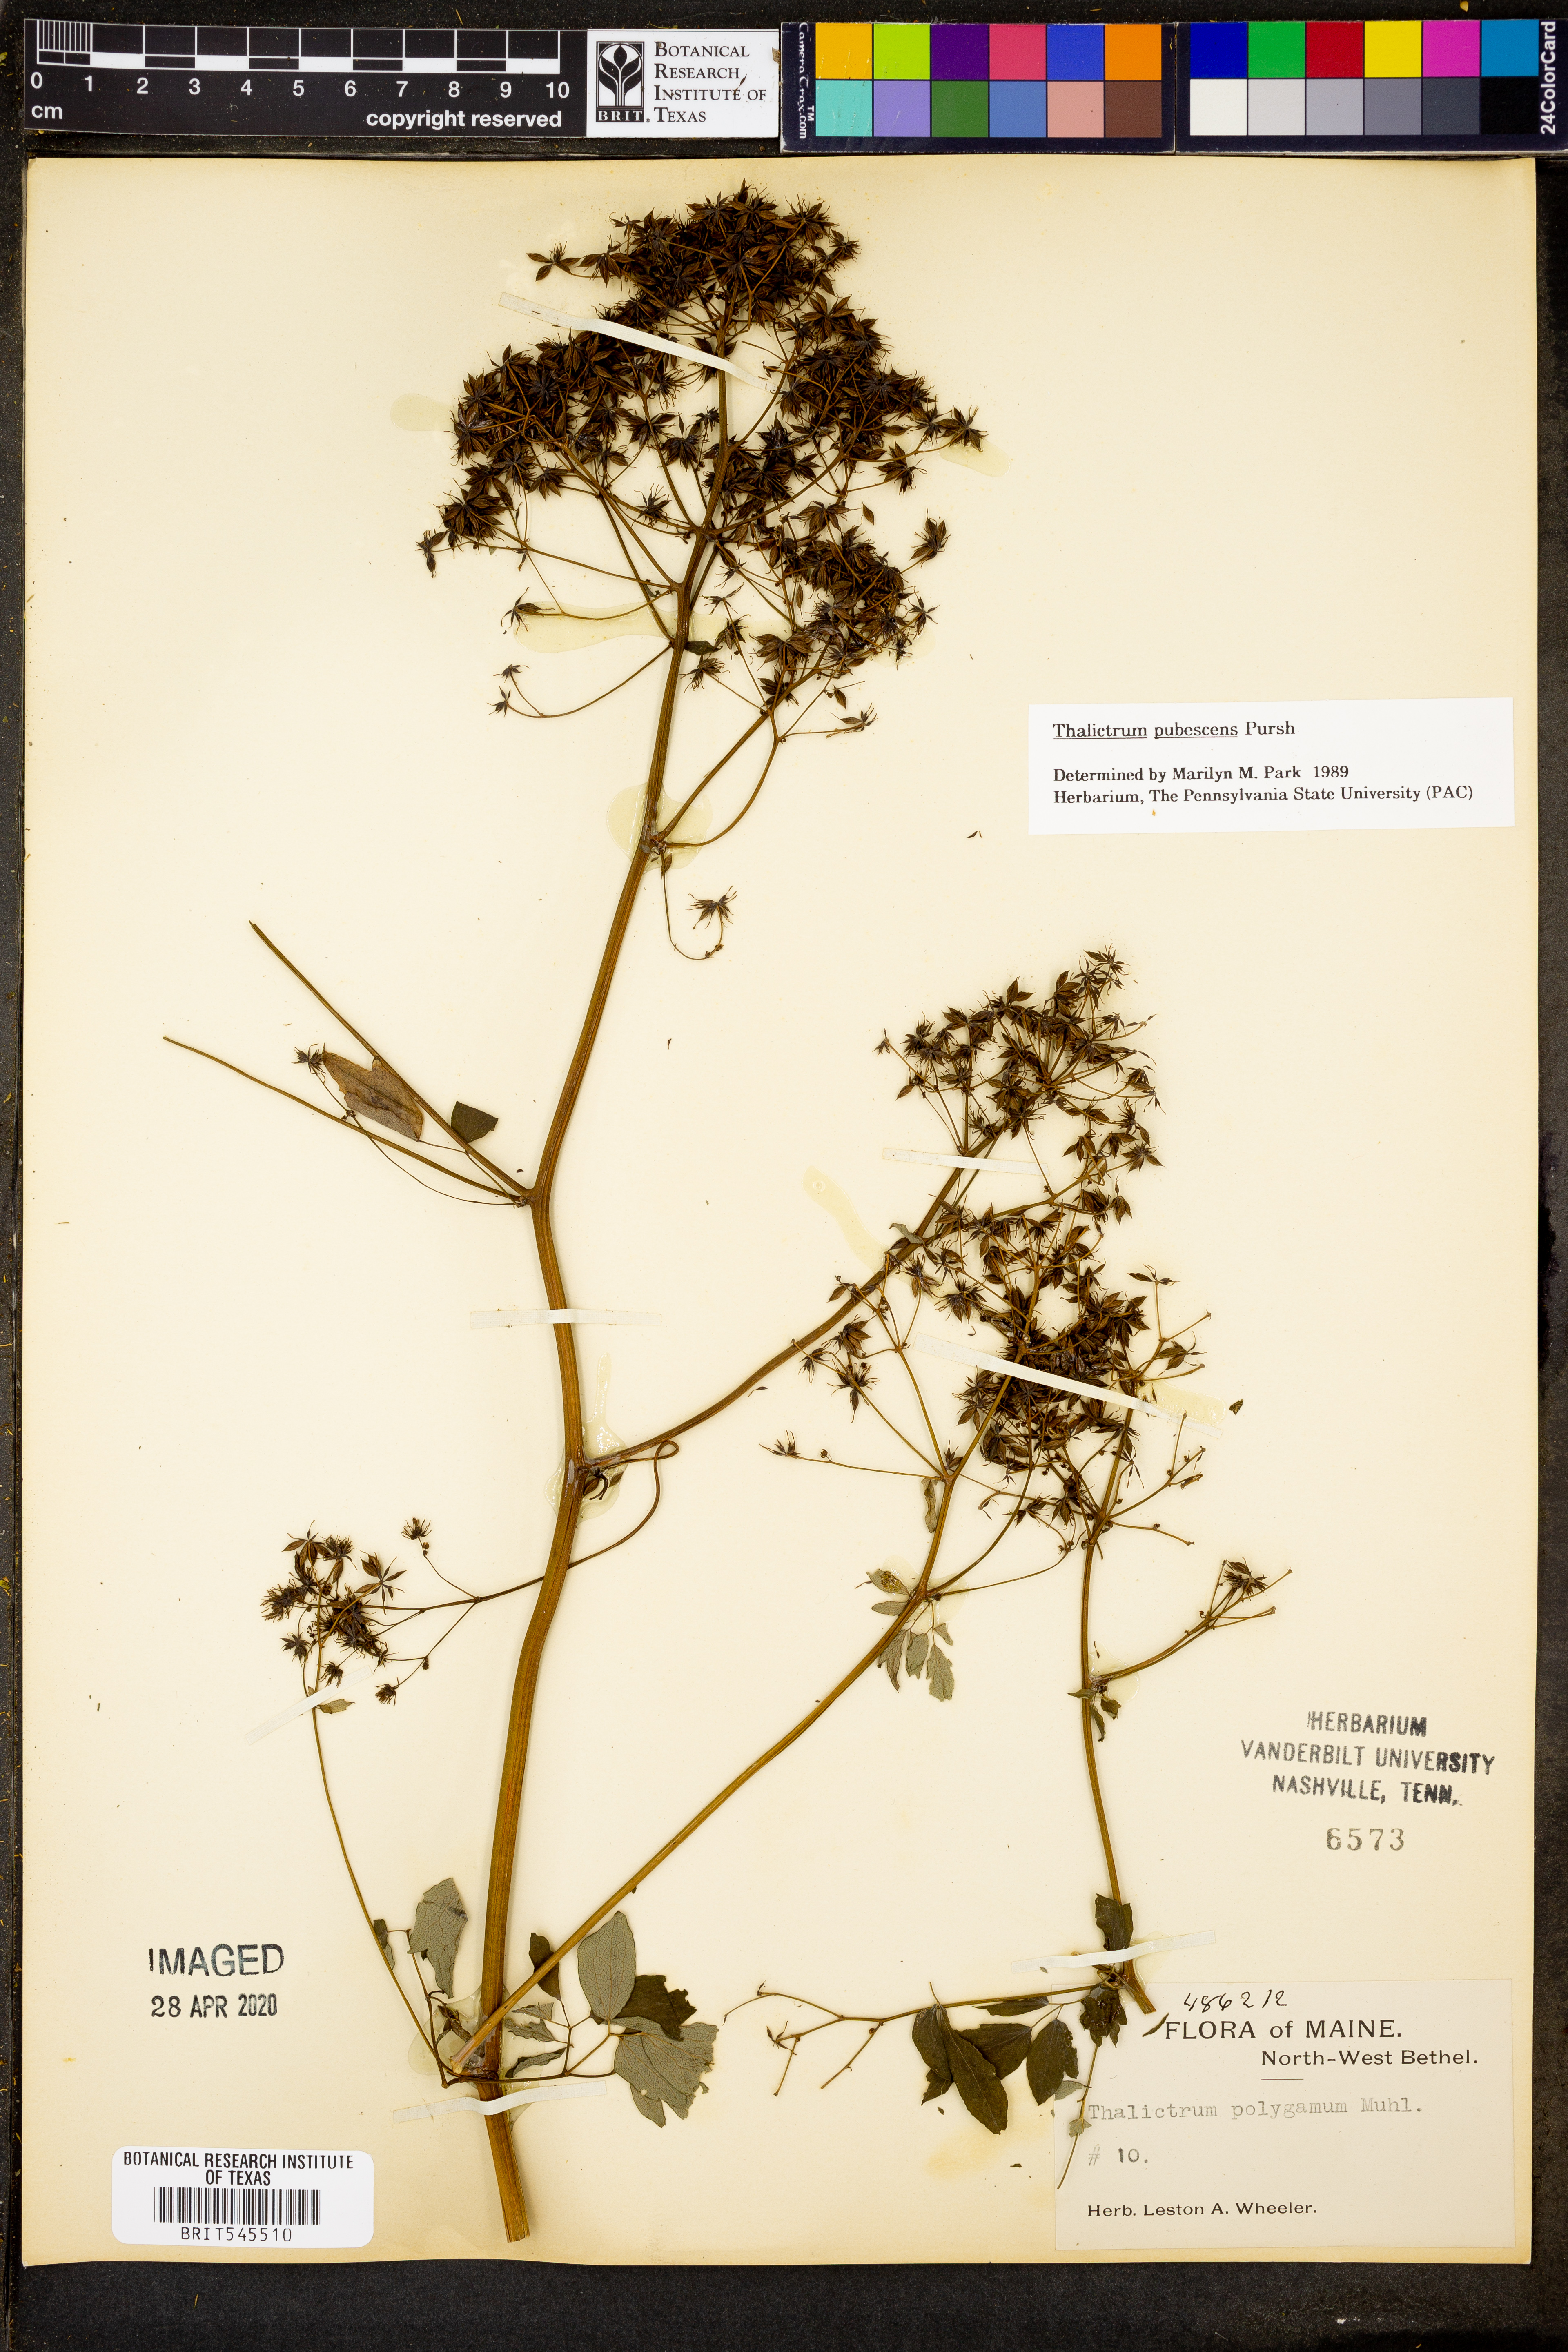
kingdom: Plantae
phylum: Tracheophyta
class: Magnoliopsida
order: Ranunculales
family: Ranunculaceae
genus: Thalictrum
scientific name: Thalictrum pubescens
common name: King-of-the-meadow
